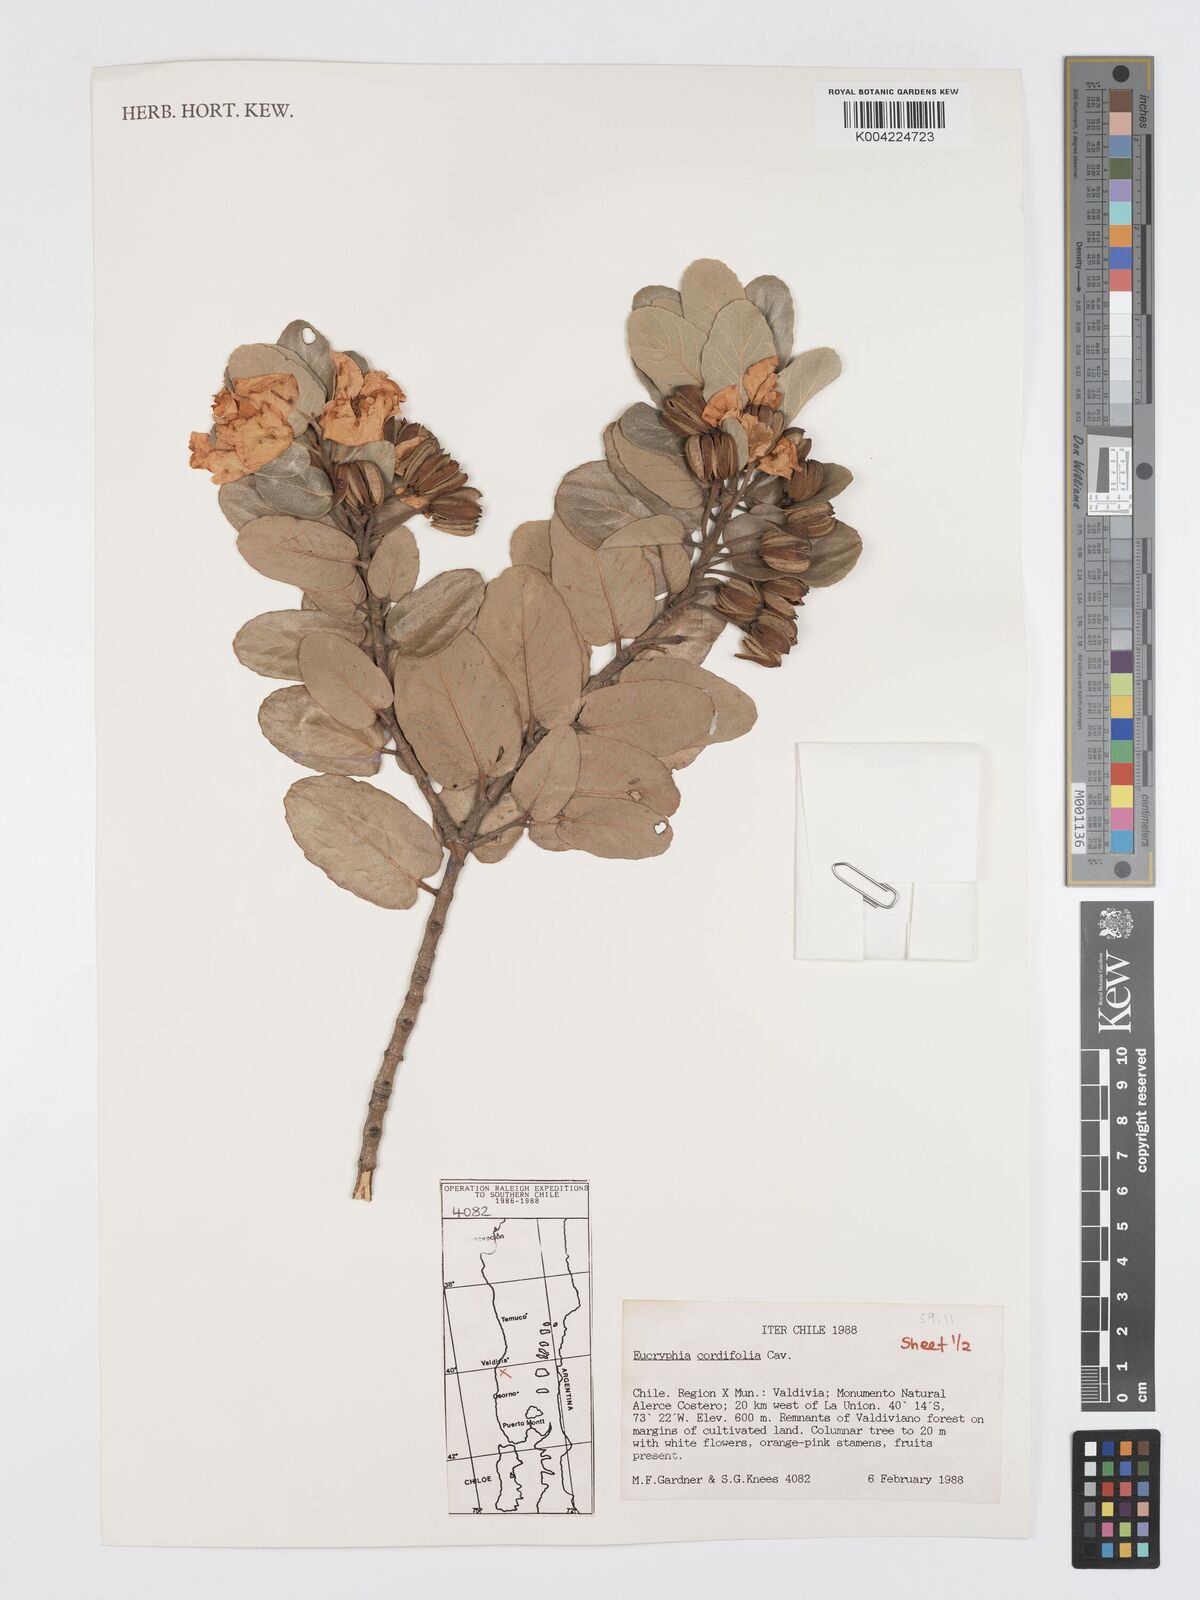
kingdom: Plantae
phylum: Tracheophyta
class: Magnoliopsida
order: Oxalidales
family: Cunoniaceae
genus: Eucryphia
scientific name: Eucryphia cordifolia
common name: Ulmo
